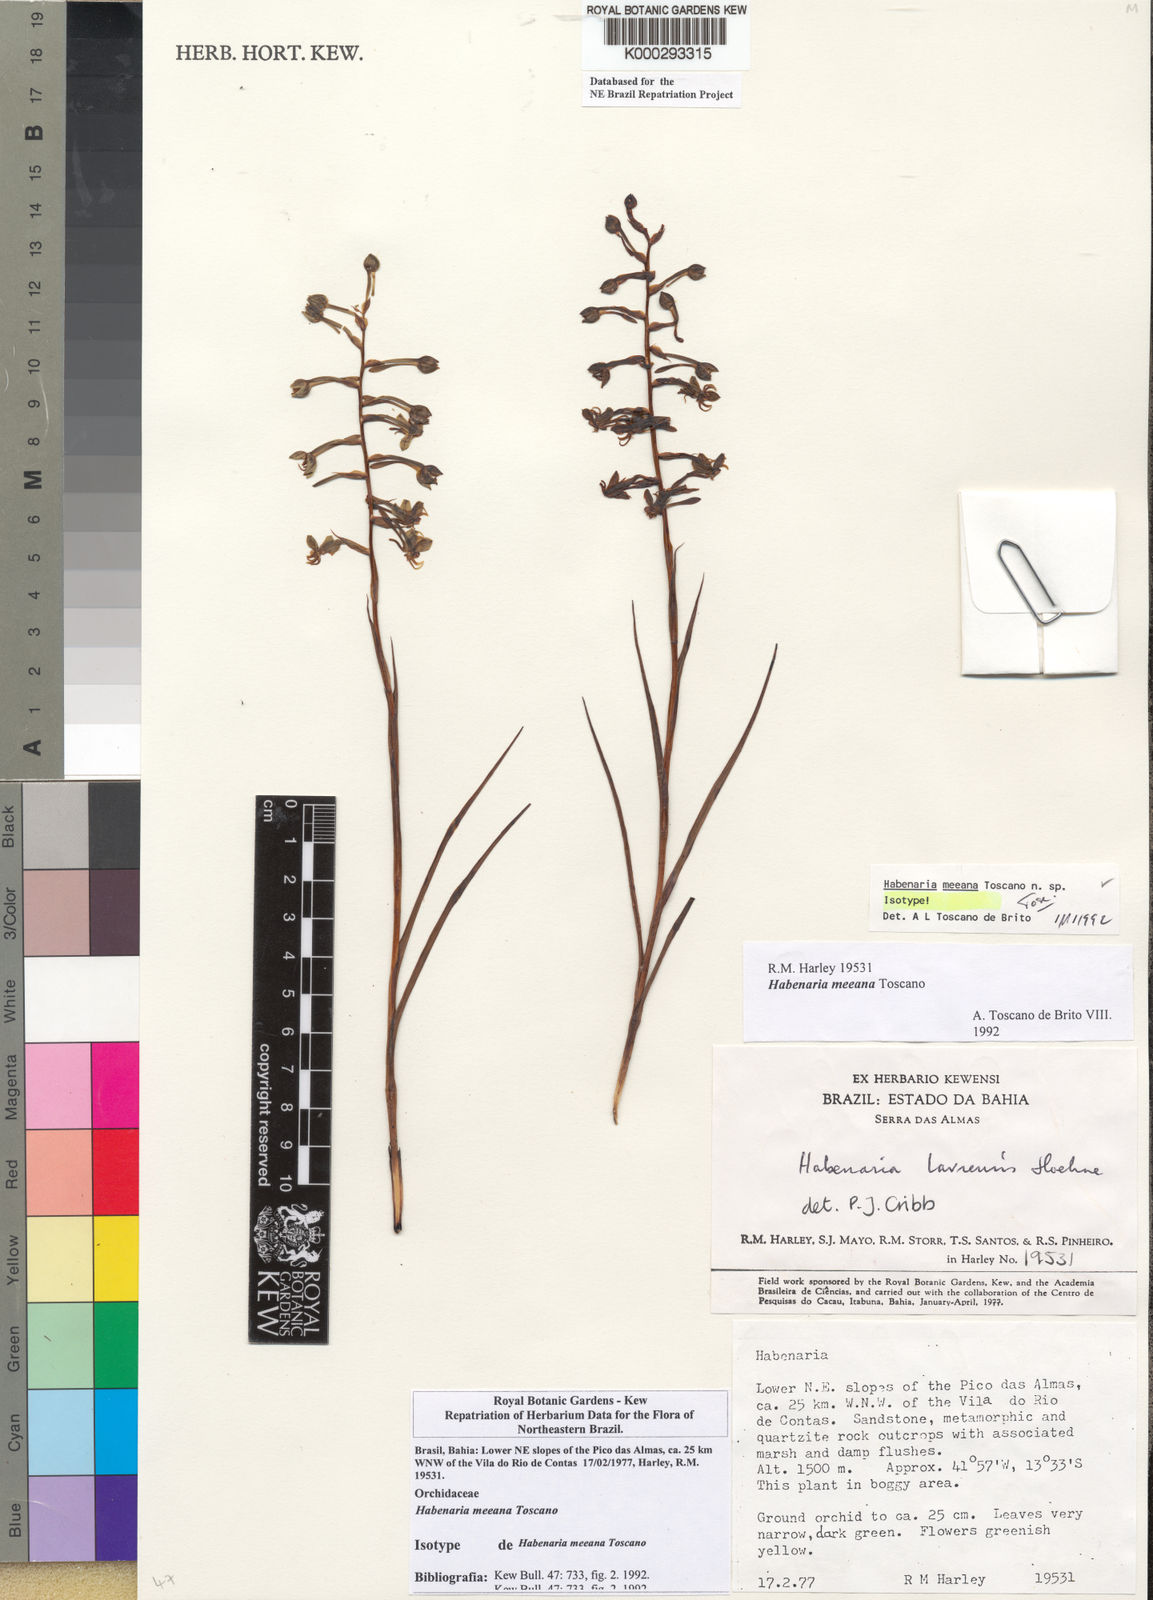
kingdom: Plantae
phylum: Tracheophyta
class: Liliopsida
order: Asparagales
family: Orchidaceae
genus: Habenaria
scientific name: Habenaria meeana
